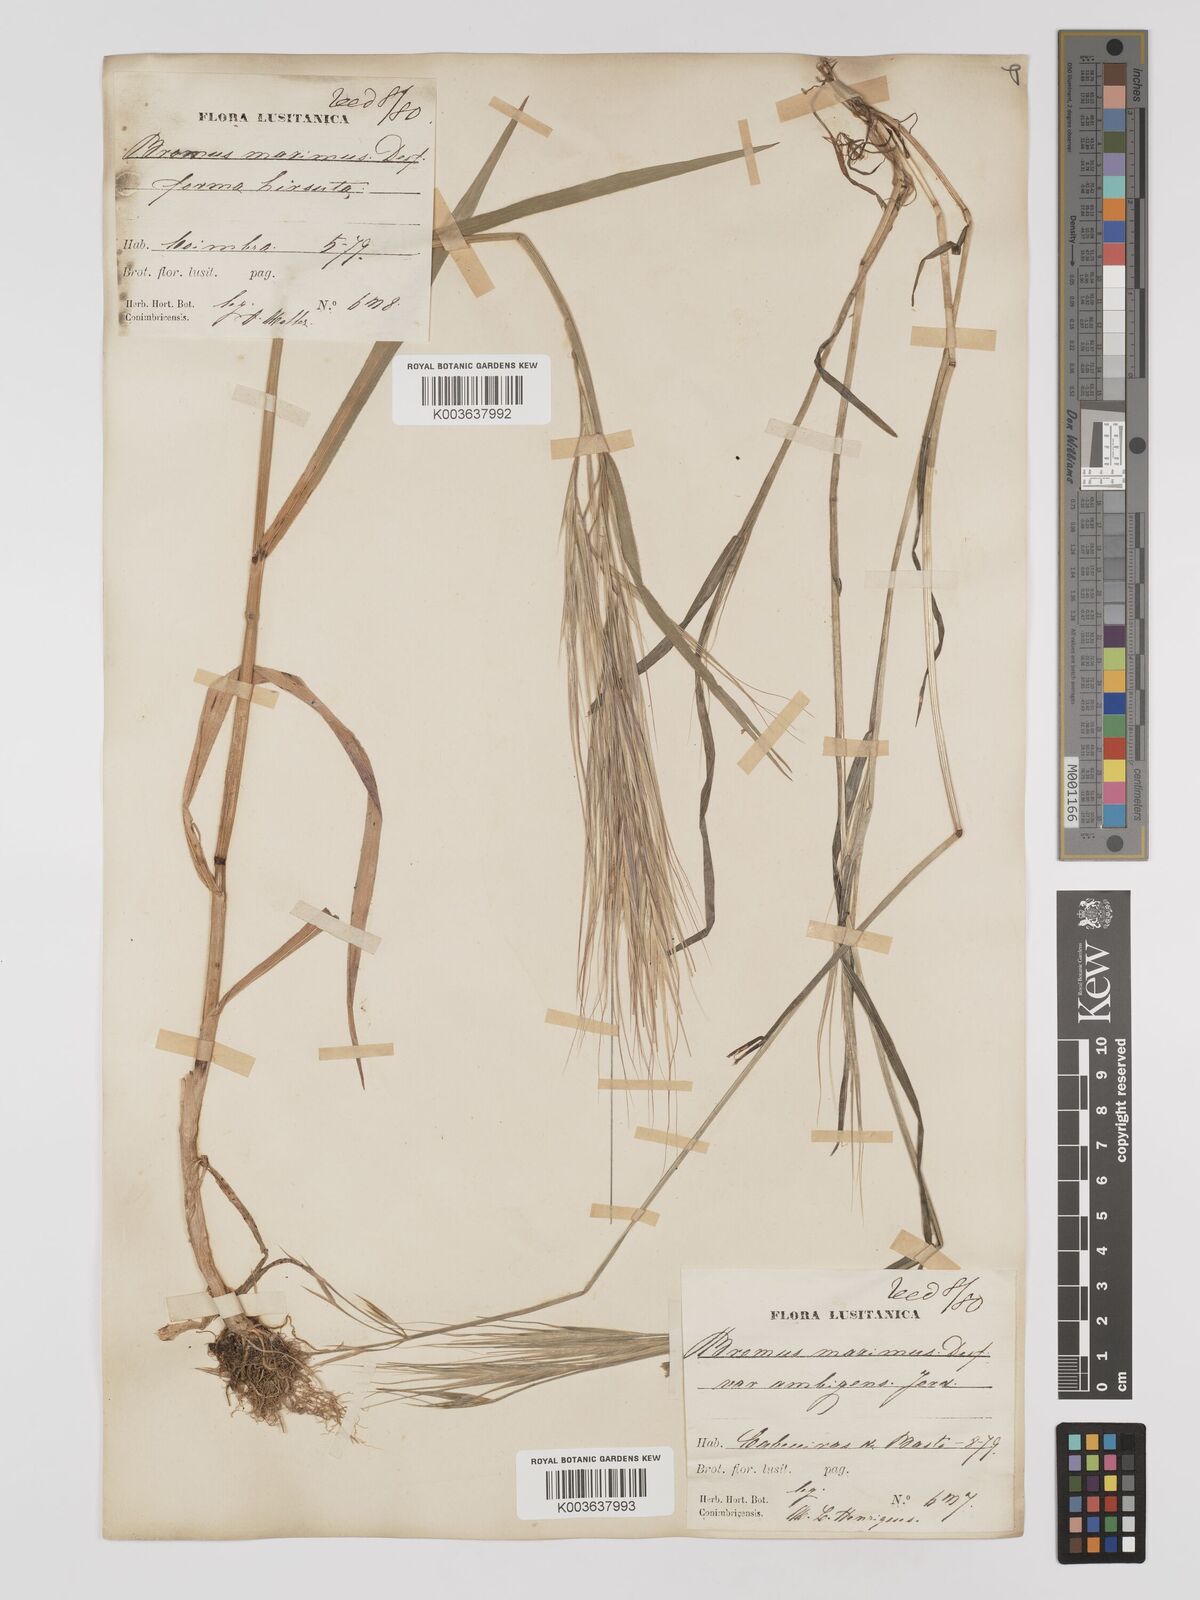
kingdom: Plantae
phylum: Tracheophyta
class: Liliopsida
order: Poales
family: Poaceae
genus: Bromus
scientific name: Bromus
